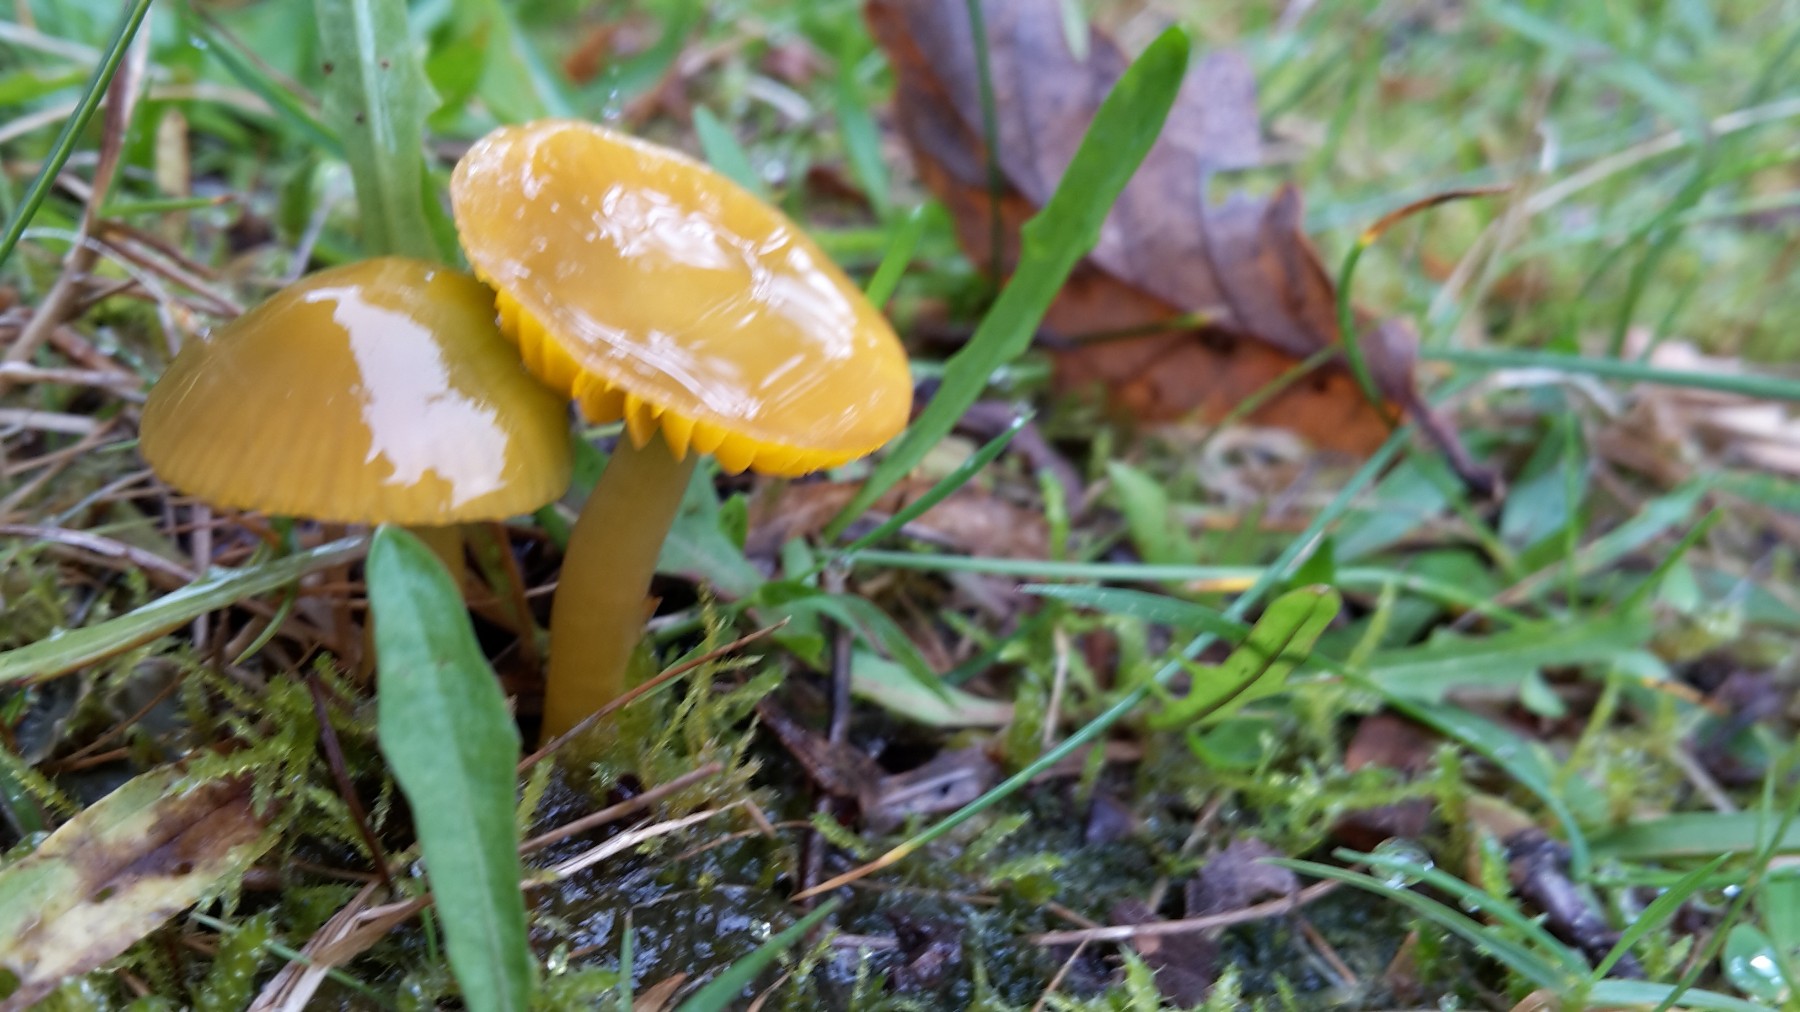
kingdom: Fungi
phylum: Basidiomycota
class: Agaricomycetes
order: Agaricales
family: Hygrophoraceae
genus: Gliophorus
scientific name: Gliophorus psittacinus
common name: papegøje-vokshat
